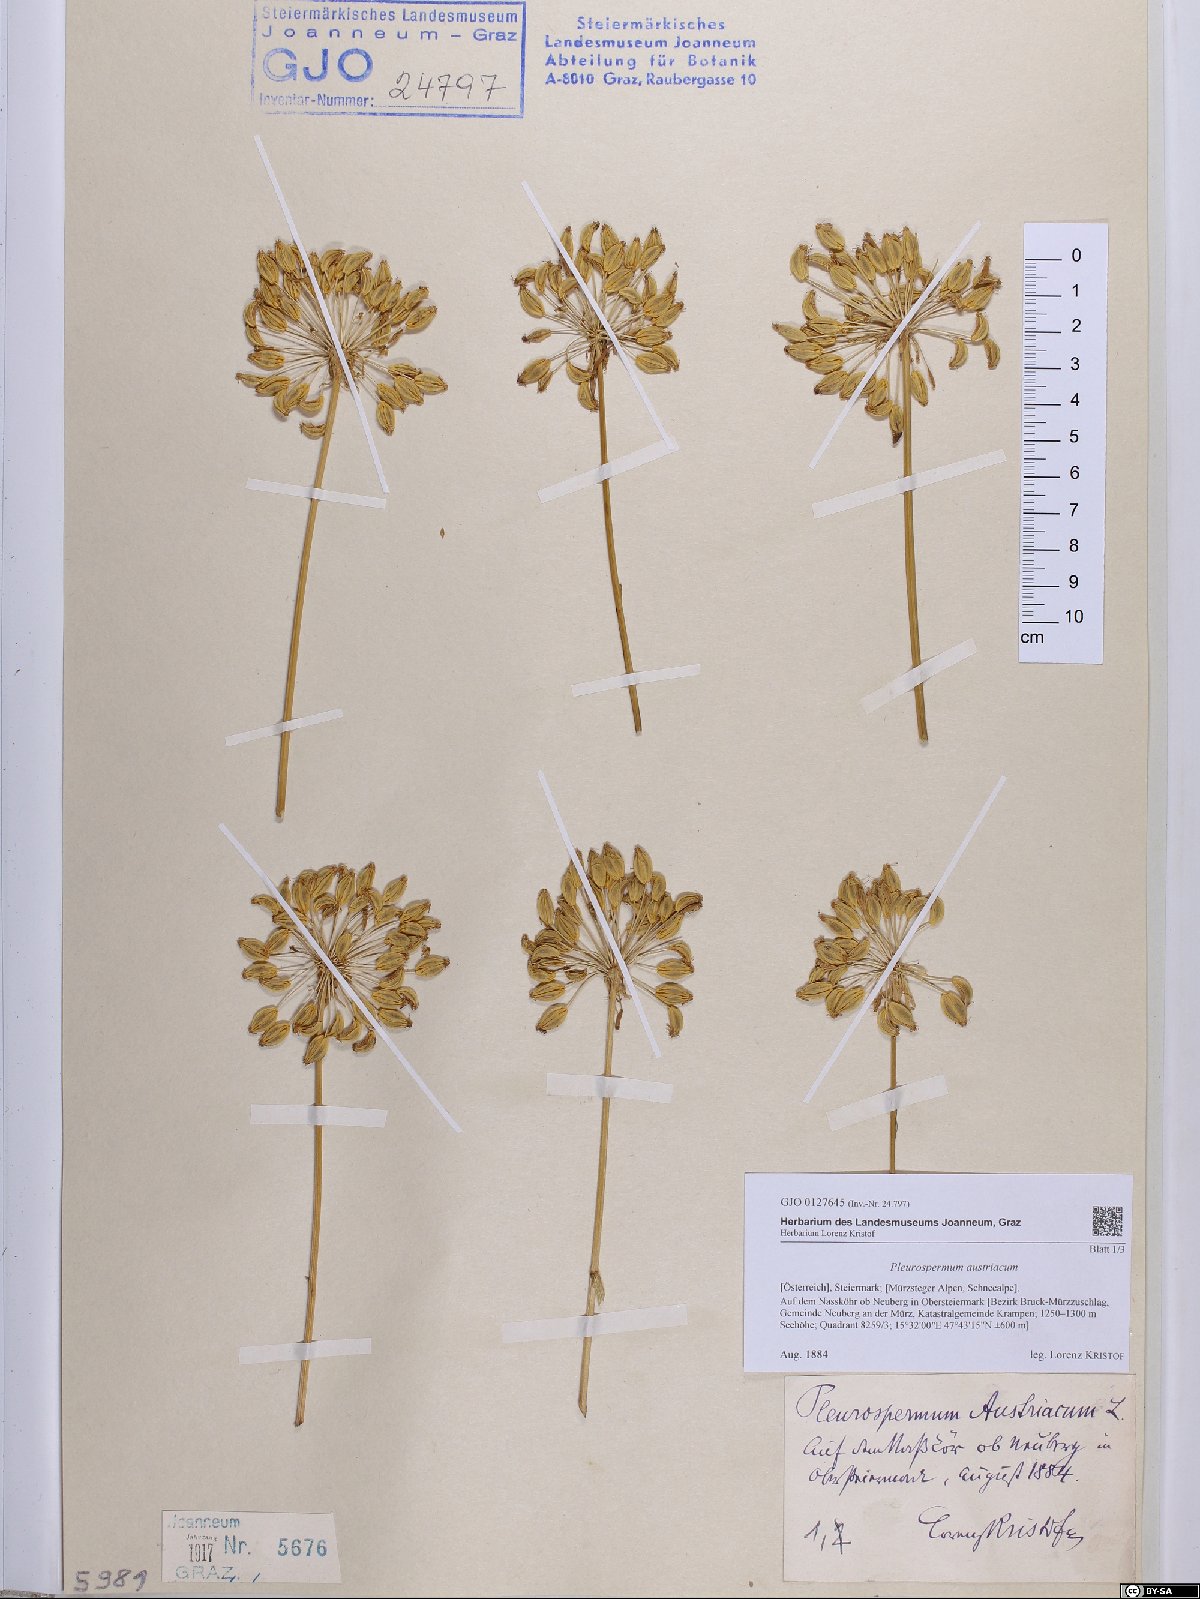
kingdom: Plantae
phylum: Tracheophyta
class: Magnoliopsida
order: Apiales
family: Apiaceae
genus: Pleurospermum
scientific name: Pleurospermum austriacum
